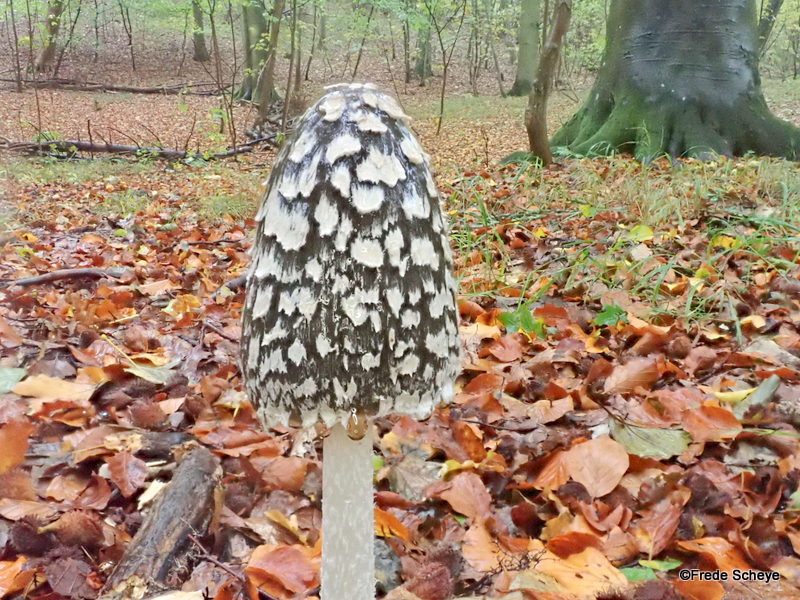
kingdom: Fungi
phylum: Basidiomycota
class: Agaricomycetes
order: Agaricales
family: Psathyrellaceae
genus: Coprinopsis
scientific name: Coprinopsis picacea
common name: skade-blækhat
